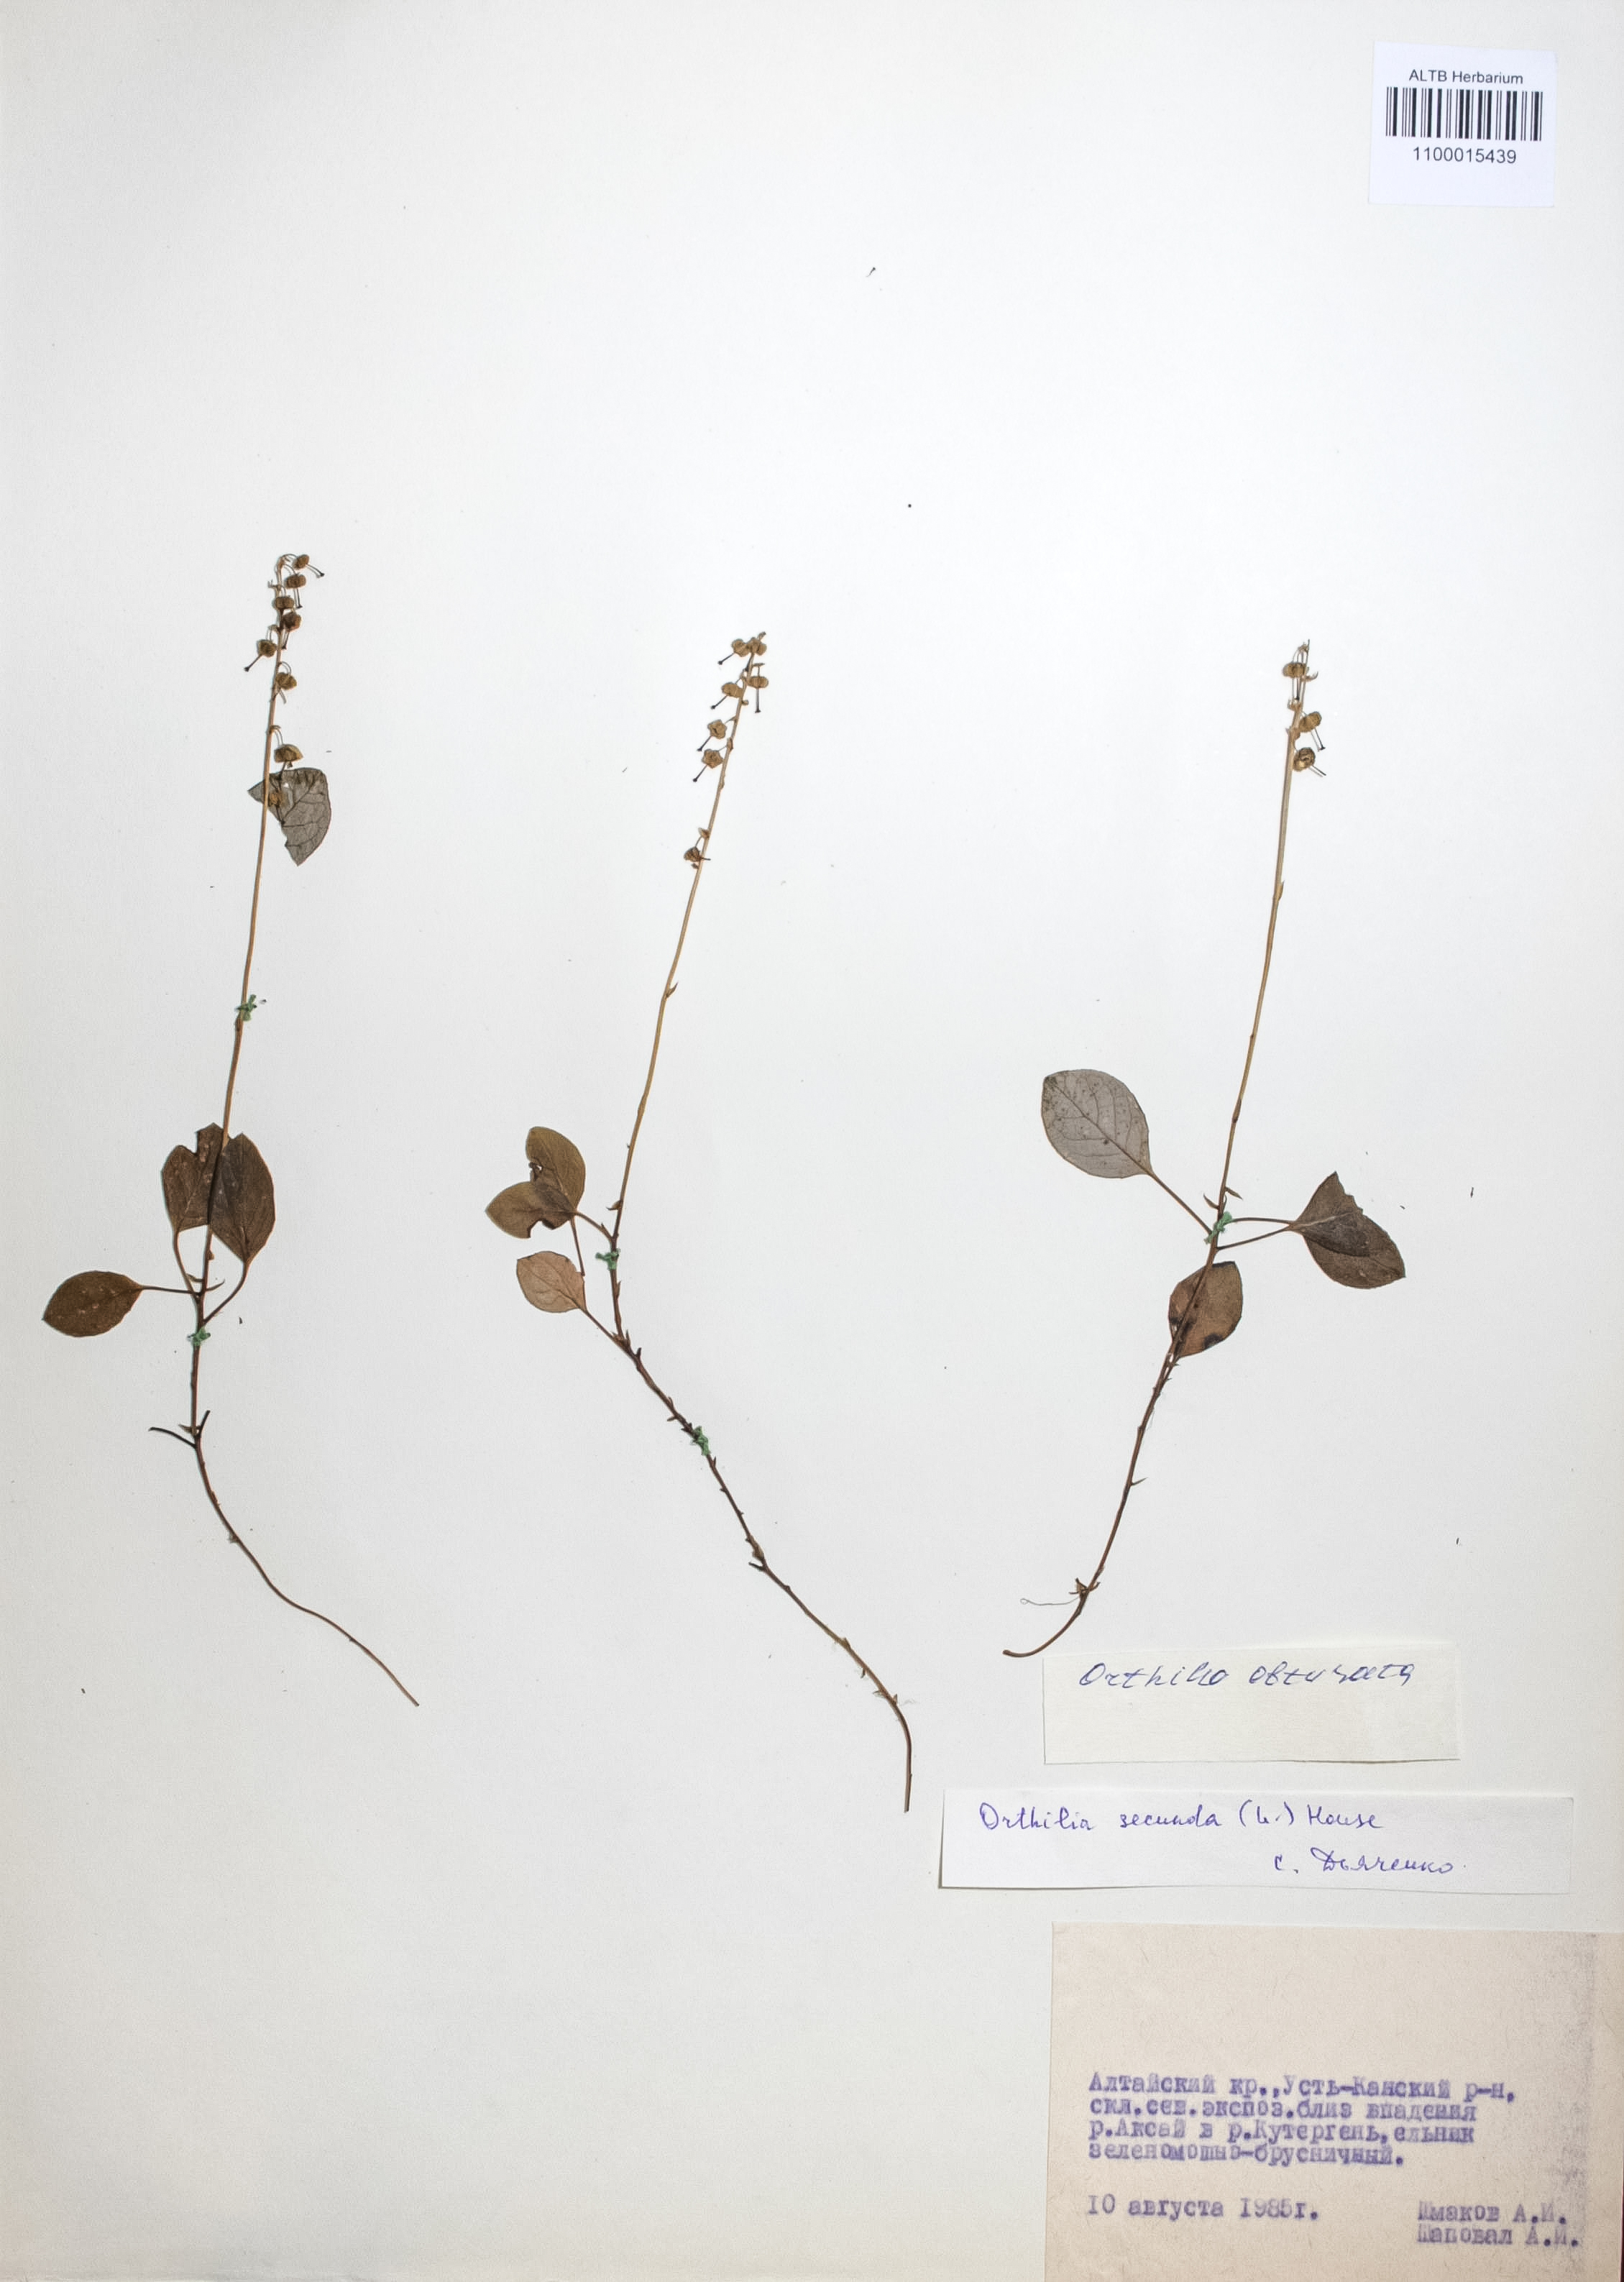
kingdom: Plantae
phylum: Tracheophyta
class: Magnoliopsida
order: Ericales
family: Ericaceae
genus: Orthilia
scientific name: Orthilia secunda
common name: One-sided orthilia
